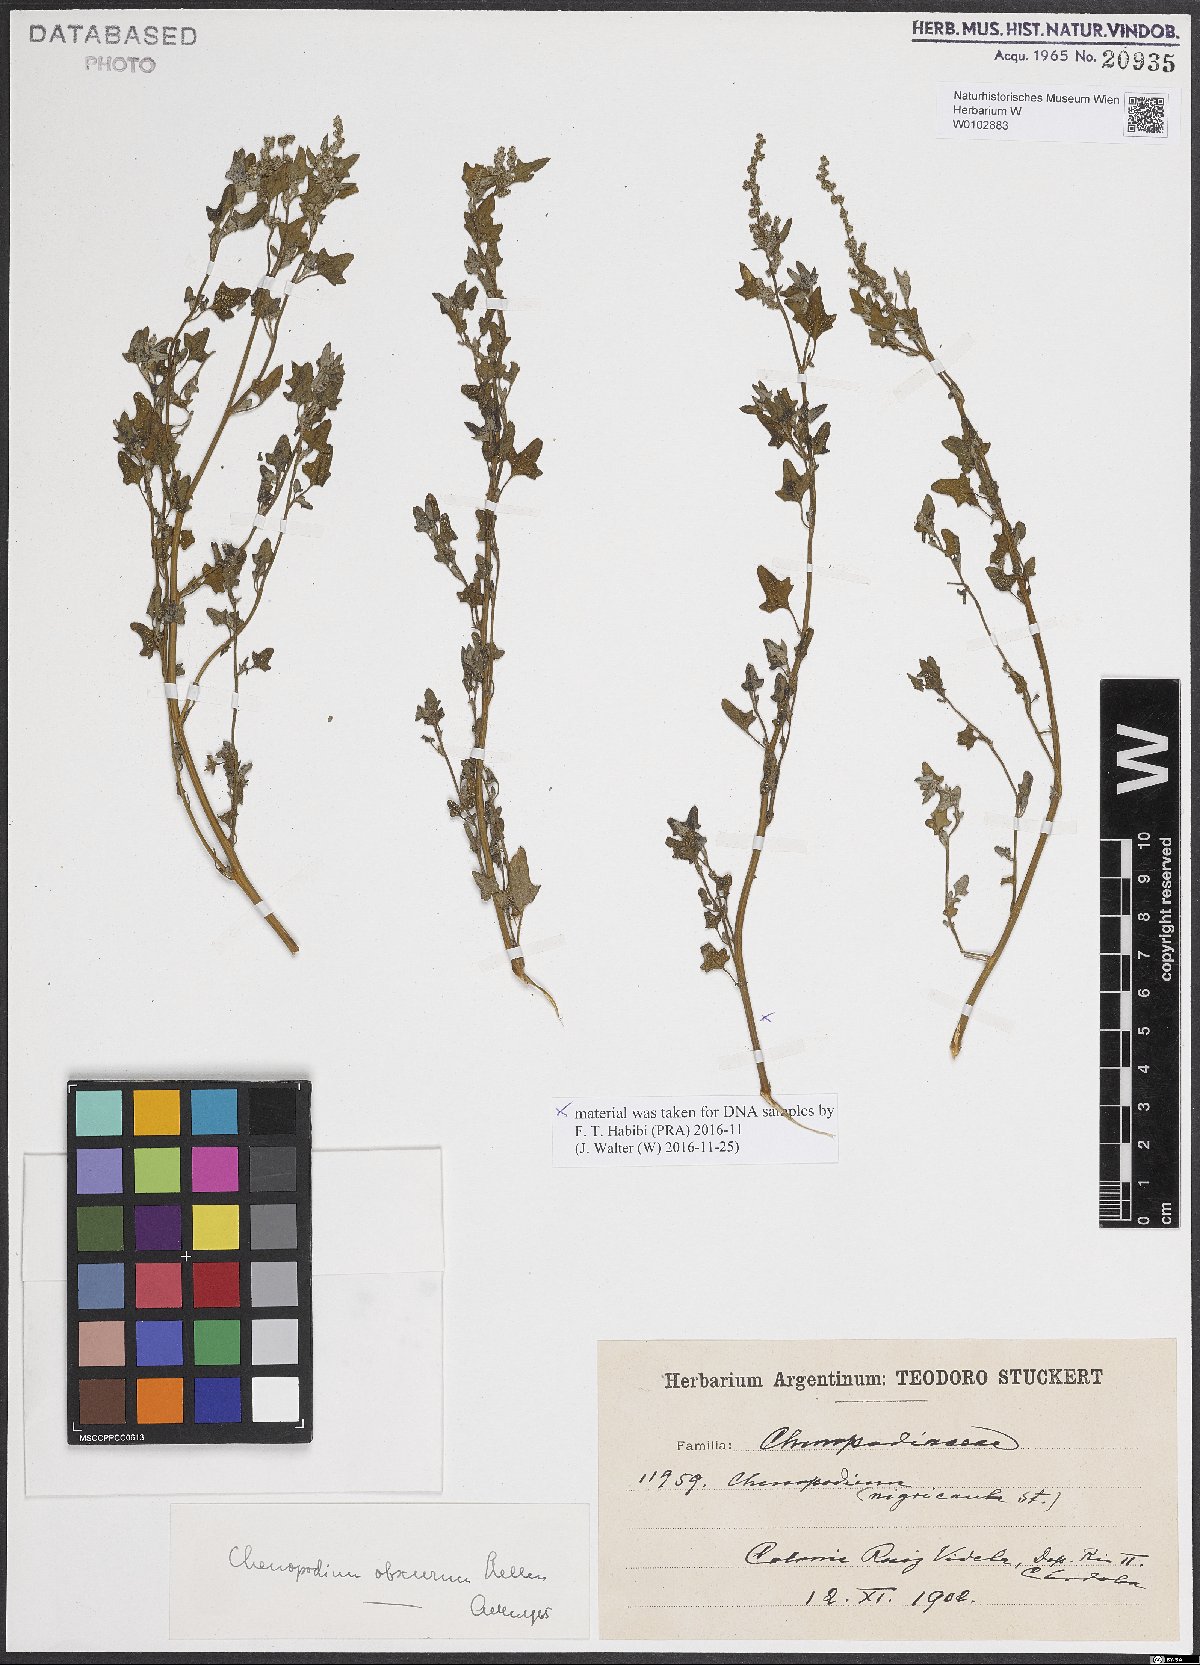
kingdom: Plantae
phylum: Tracheophyta
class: Magnoliopsida
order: Caryophyllales
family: Amaranthaceae
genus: Chenopodium
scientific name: Chenopodium obscurum
